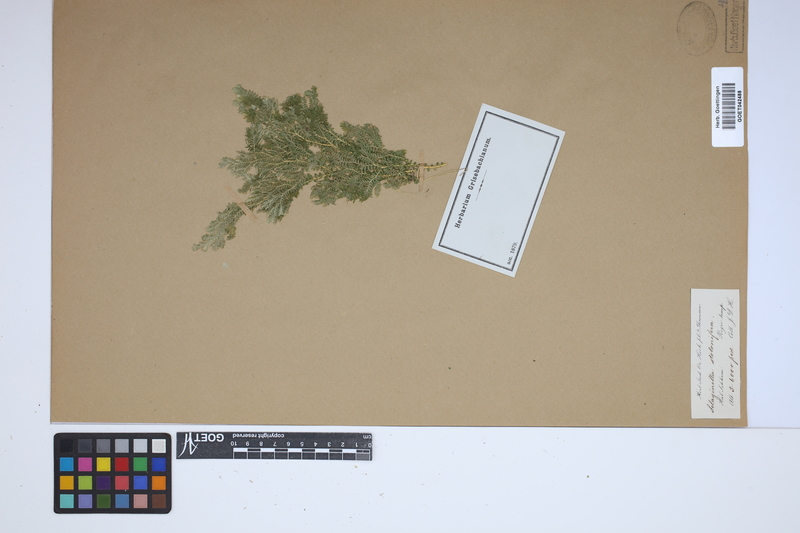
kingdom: Plantae
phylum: Tracheophyta
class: Lycopodiopsida
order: Selaginellales
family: Selaginellaceae
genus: Selaginella
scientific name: Selaginella intermedia
